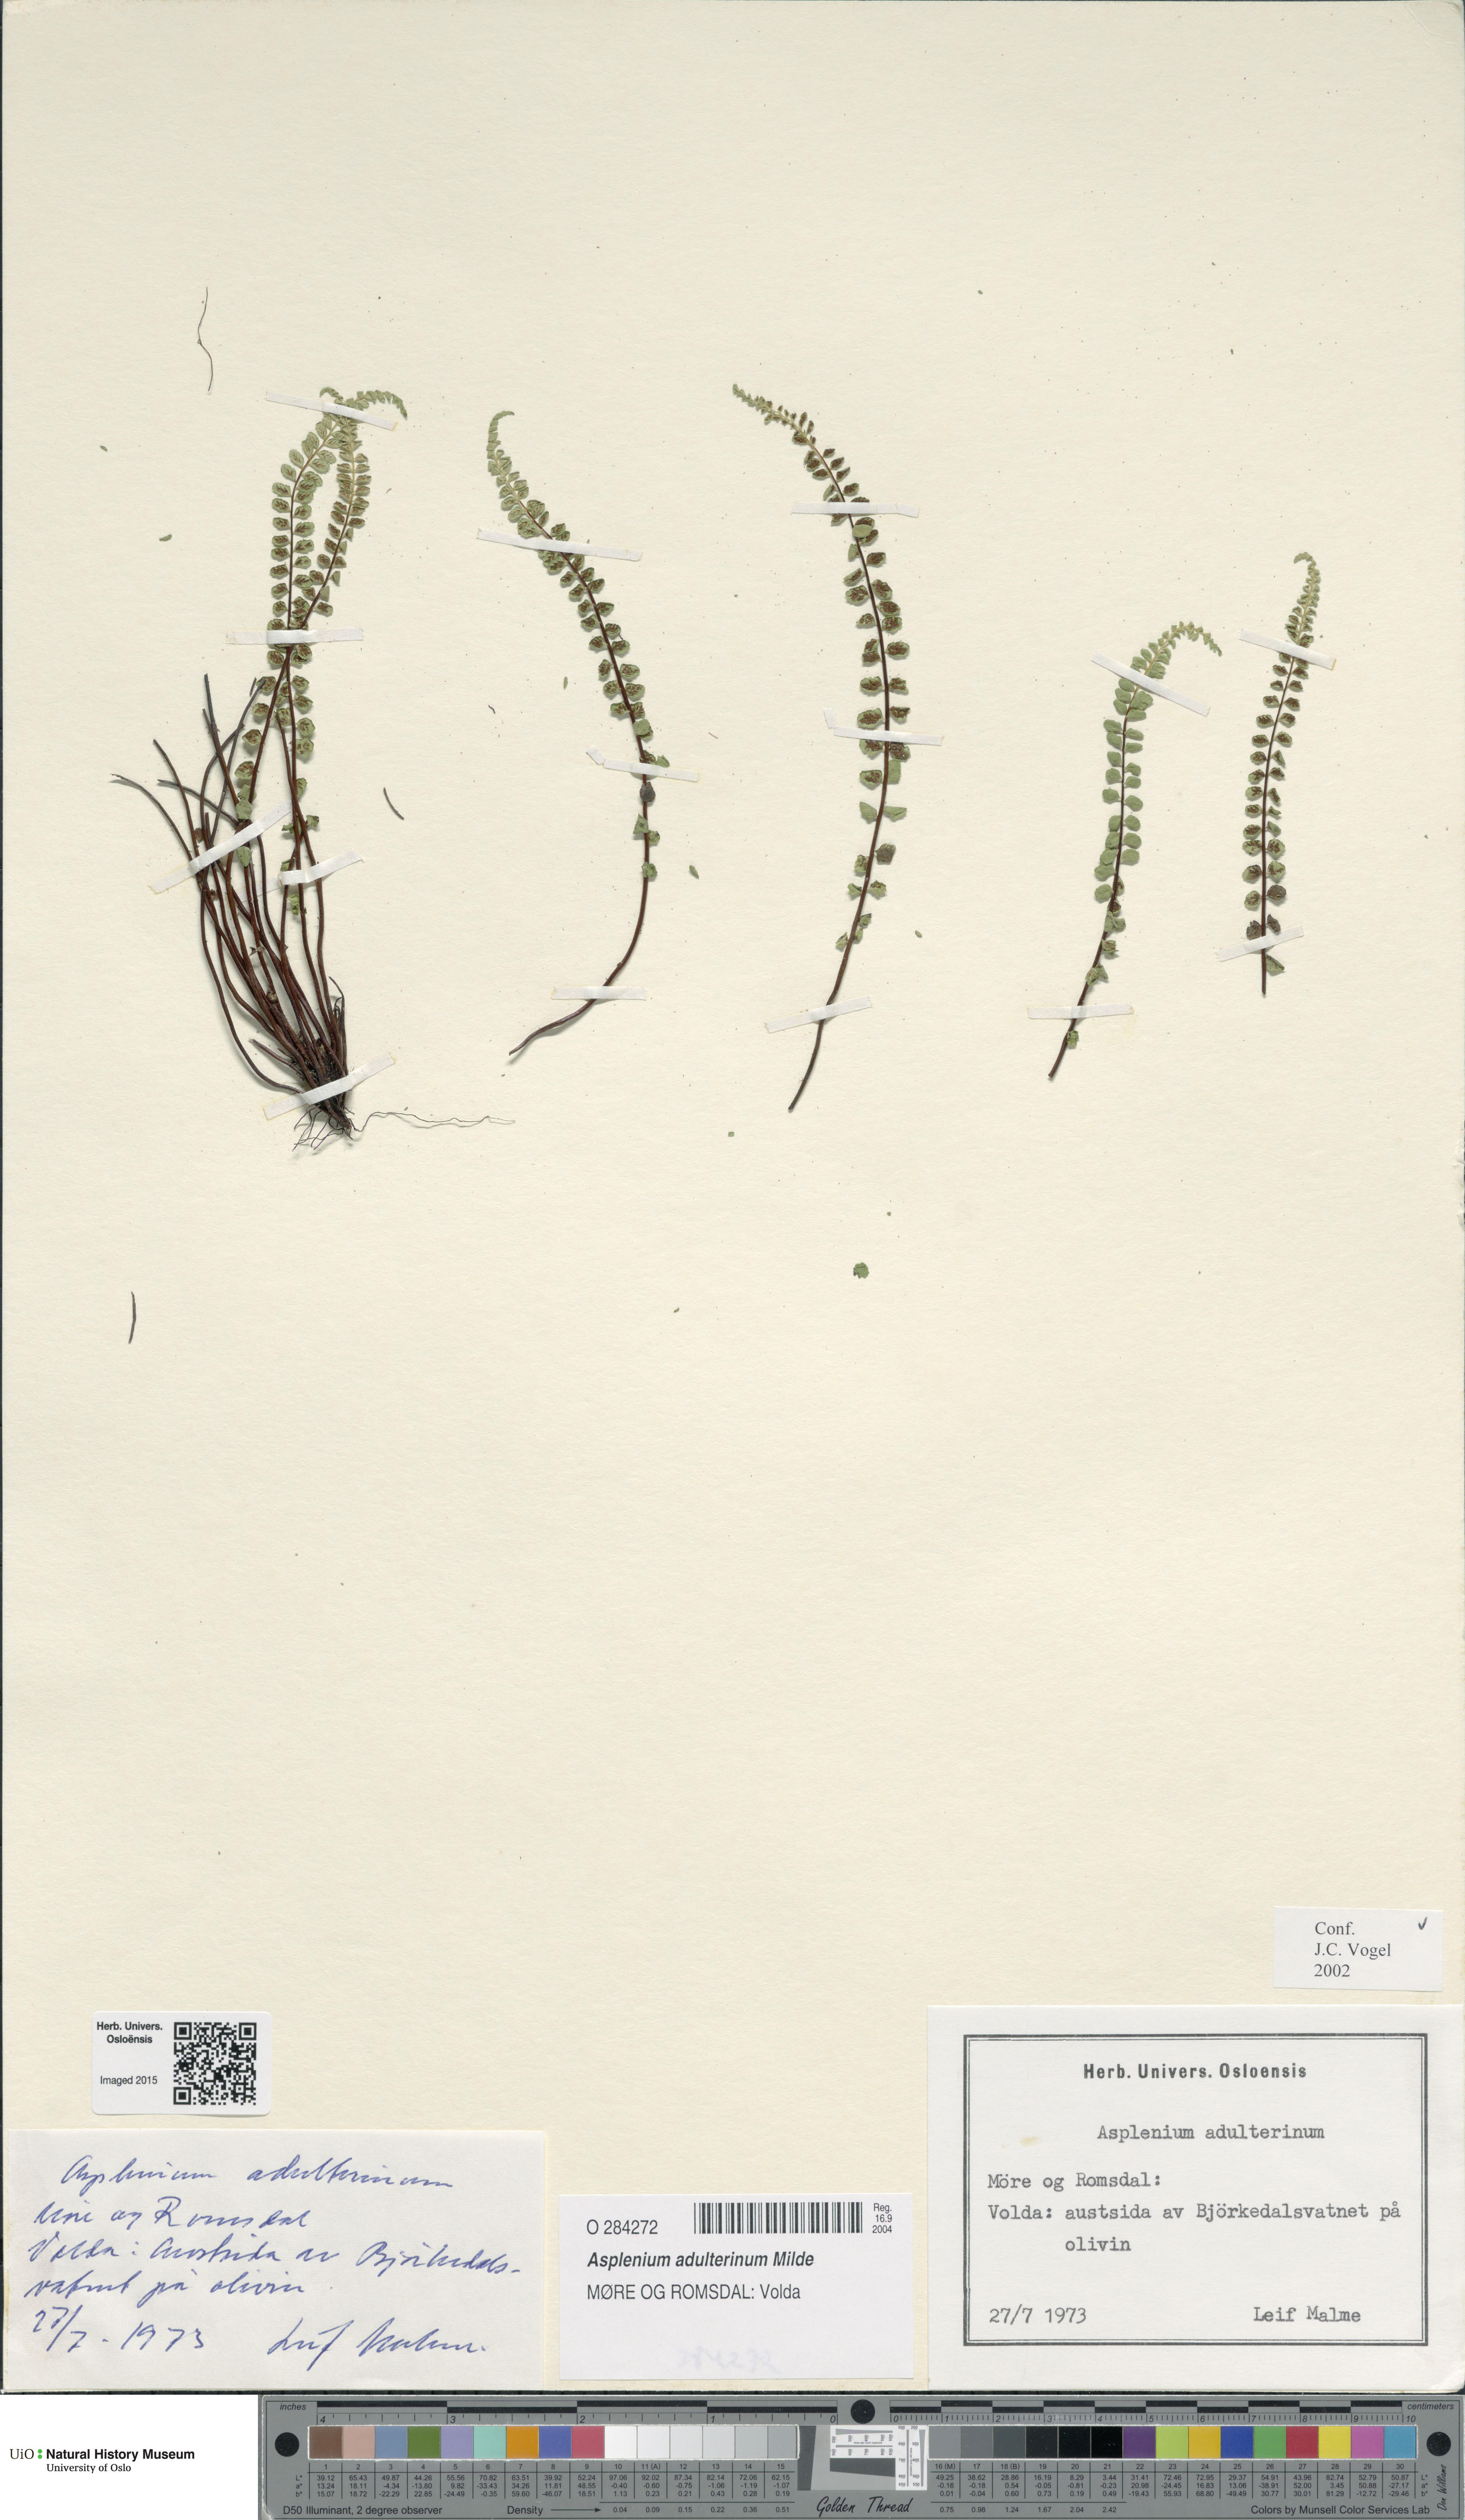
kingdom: Plantae
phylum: Tracheophyta
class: Polypodiopsida
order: Polypodiales
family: Aspleniaceae
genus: Asplenium
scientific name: Asplenium adulterinum
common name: Adulterated spleenwort
